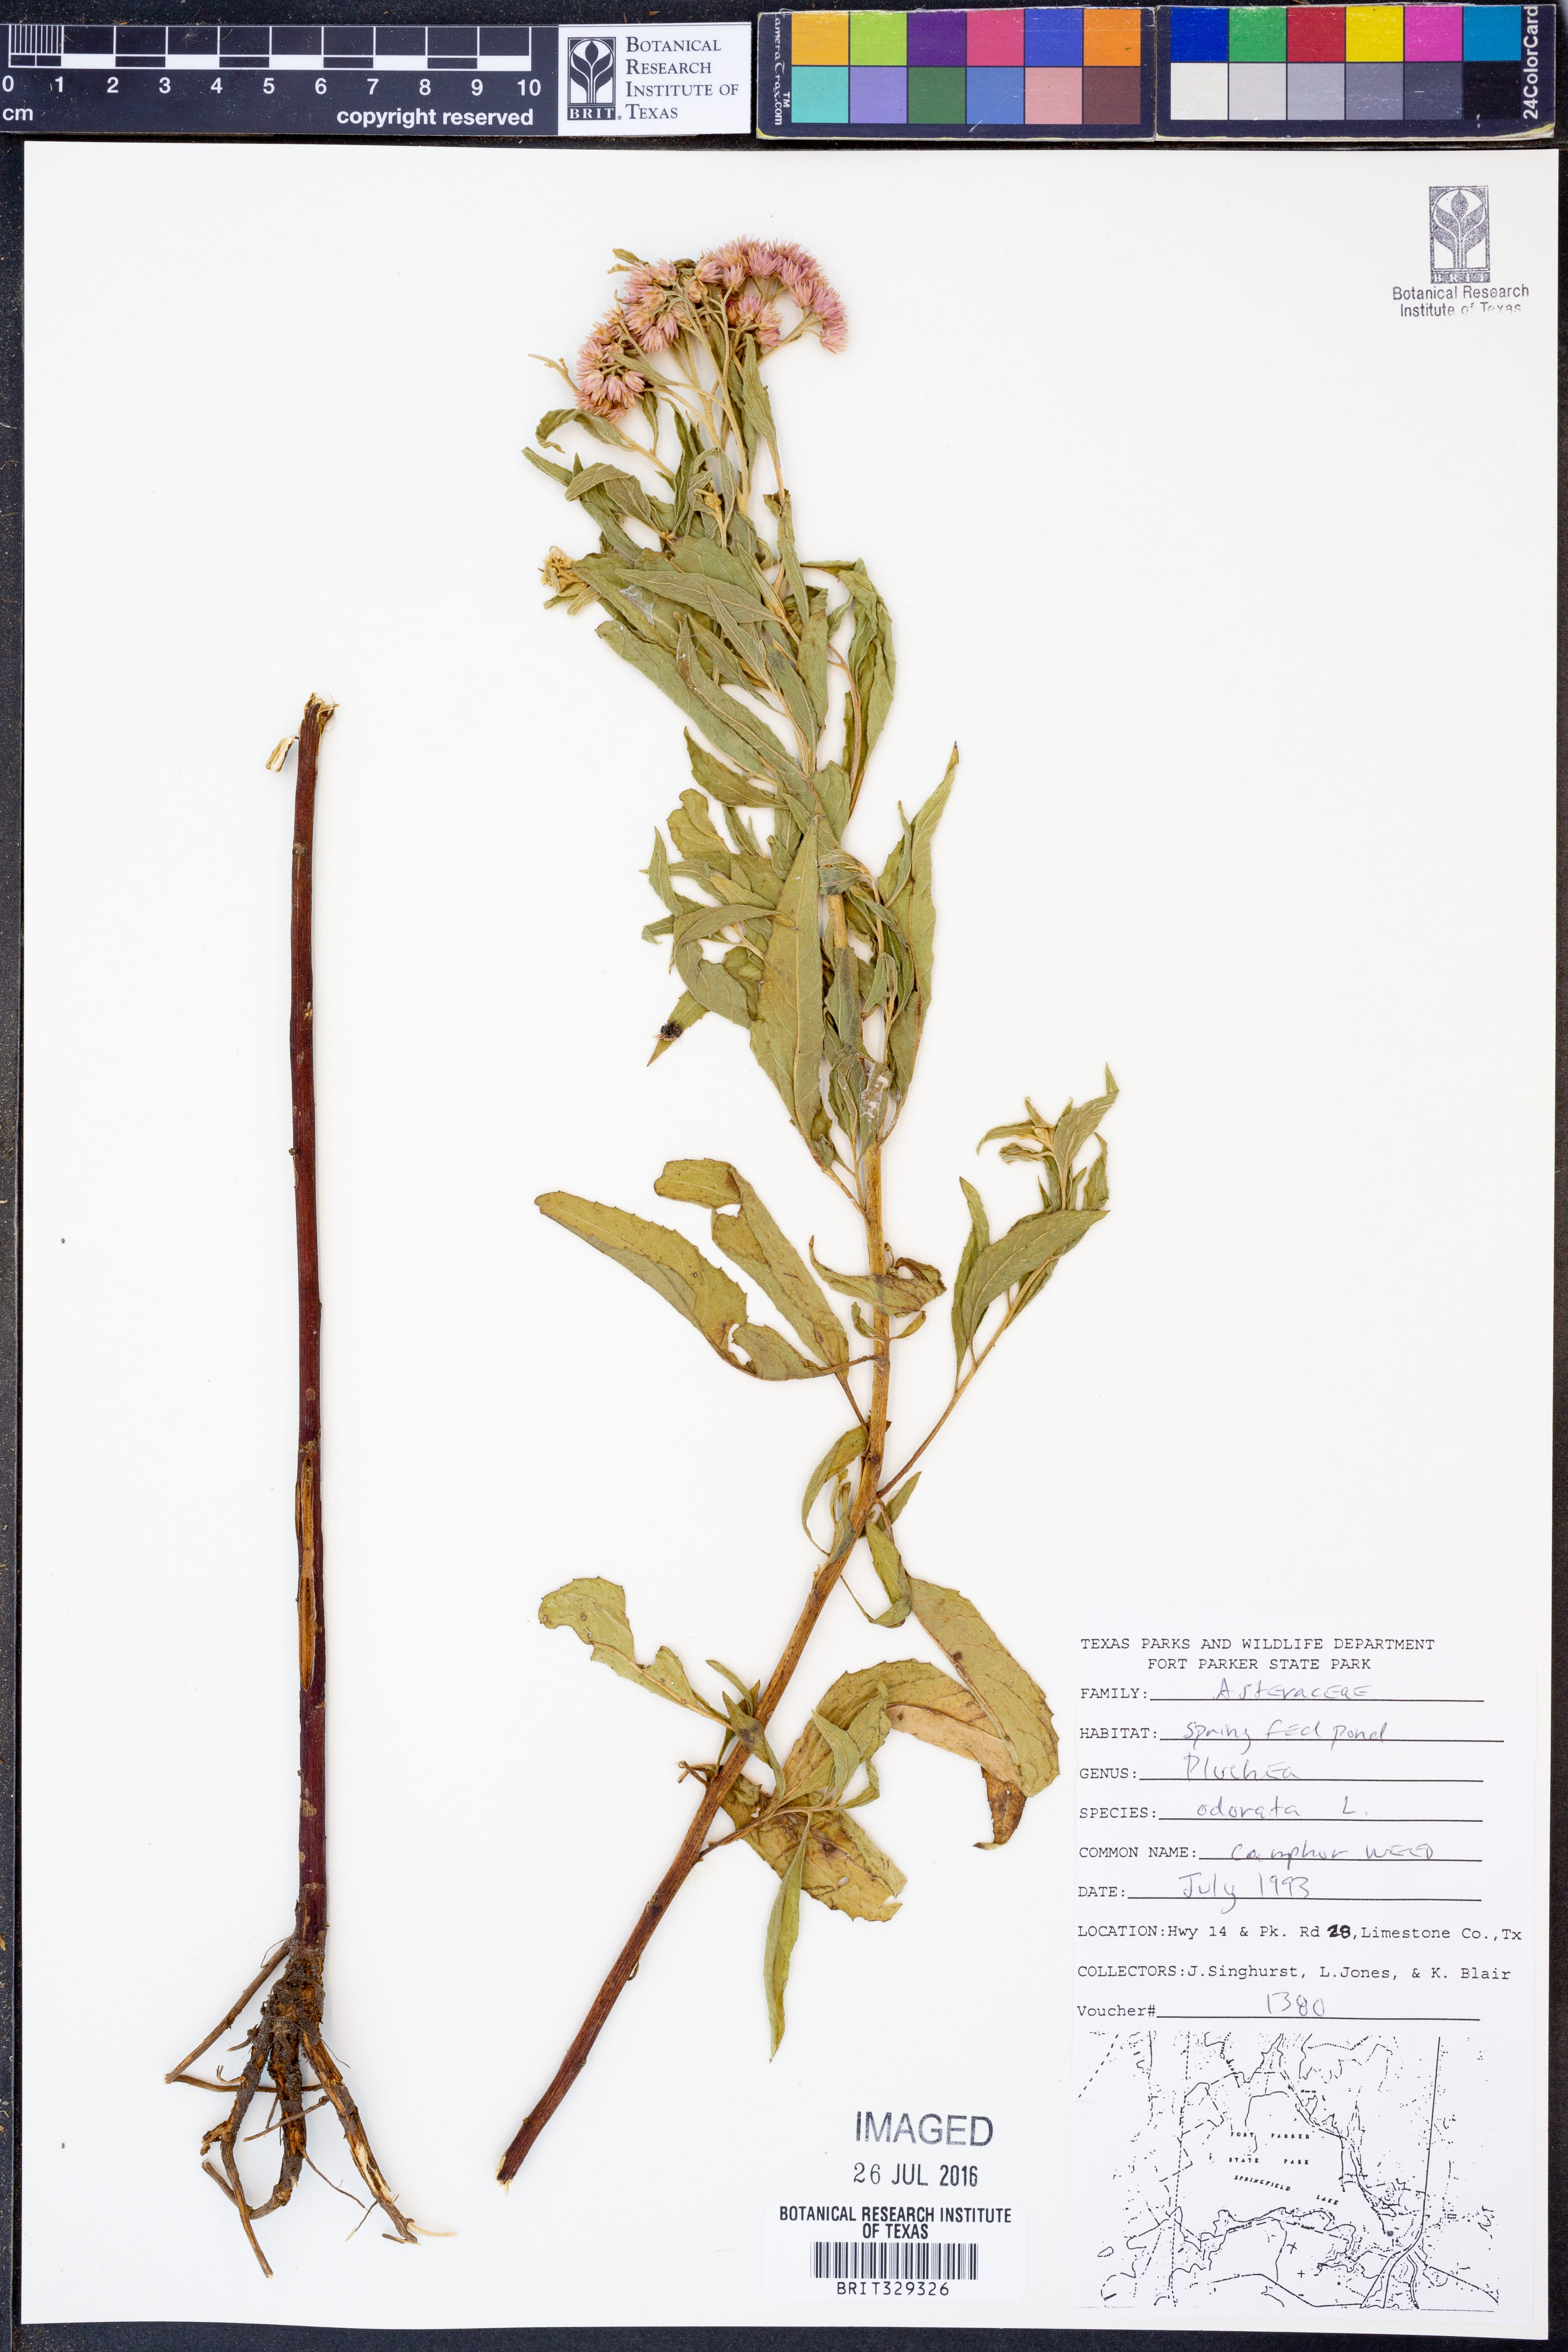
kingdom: Plantae
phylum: Tracheophyta
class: Magnoliopsida
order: Asterales
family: Asteraceae
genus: Pluchea
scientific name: Pluchea odorata
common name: Saltmarsh fleabane
